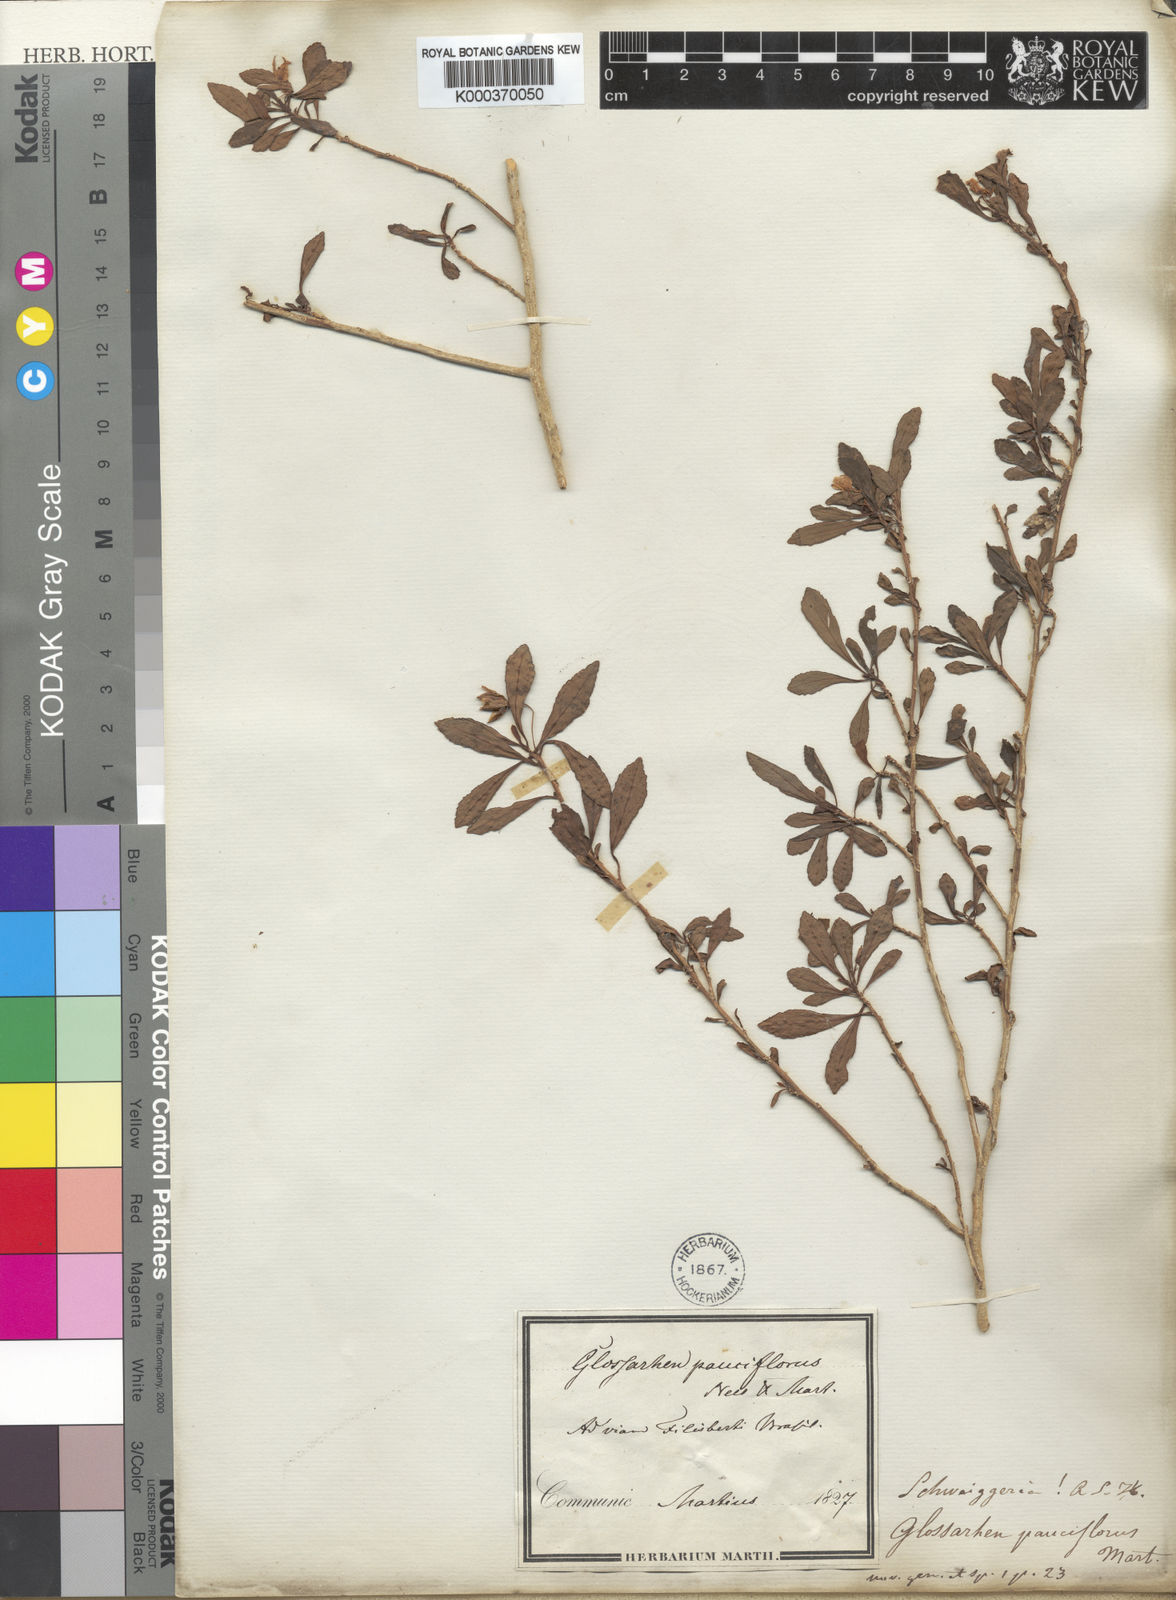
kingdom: Plantae
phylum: Tracheophyta
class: Magnoliopsida
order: Malpighiales
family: Violaceae
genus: Schweiggeria
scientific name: Schweiggeria fruticosa
